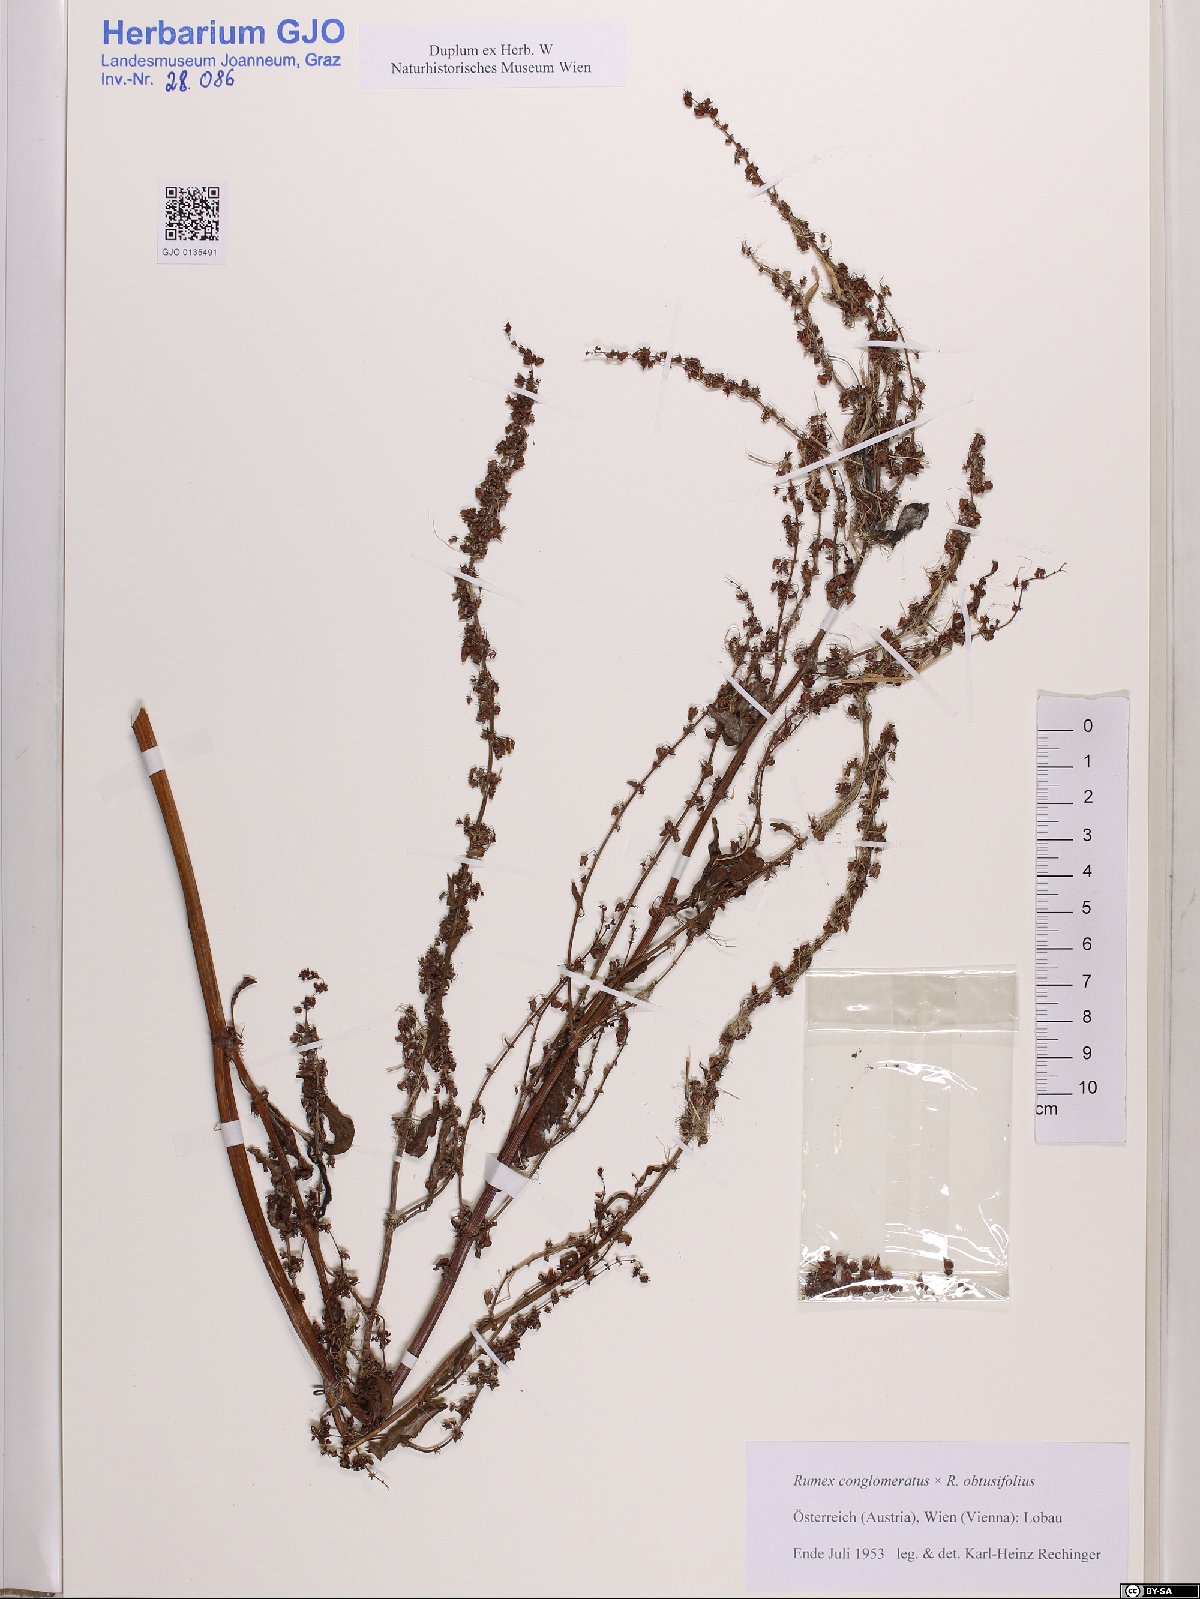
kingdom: Plantae
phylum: Tracheophyta
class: Magnoliopsida
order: Caryophyllales
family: Polygonaceae
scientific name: Polygonaceae
